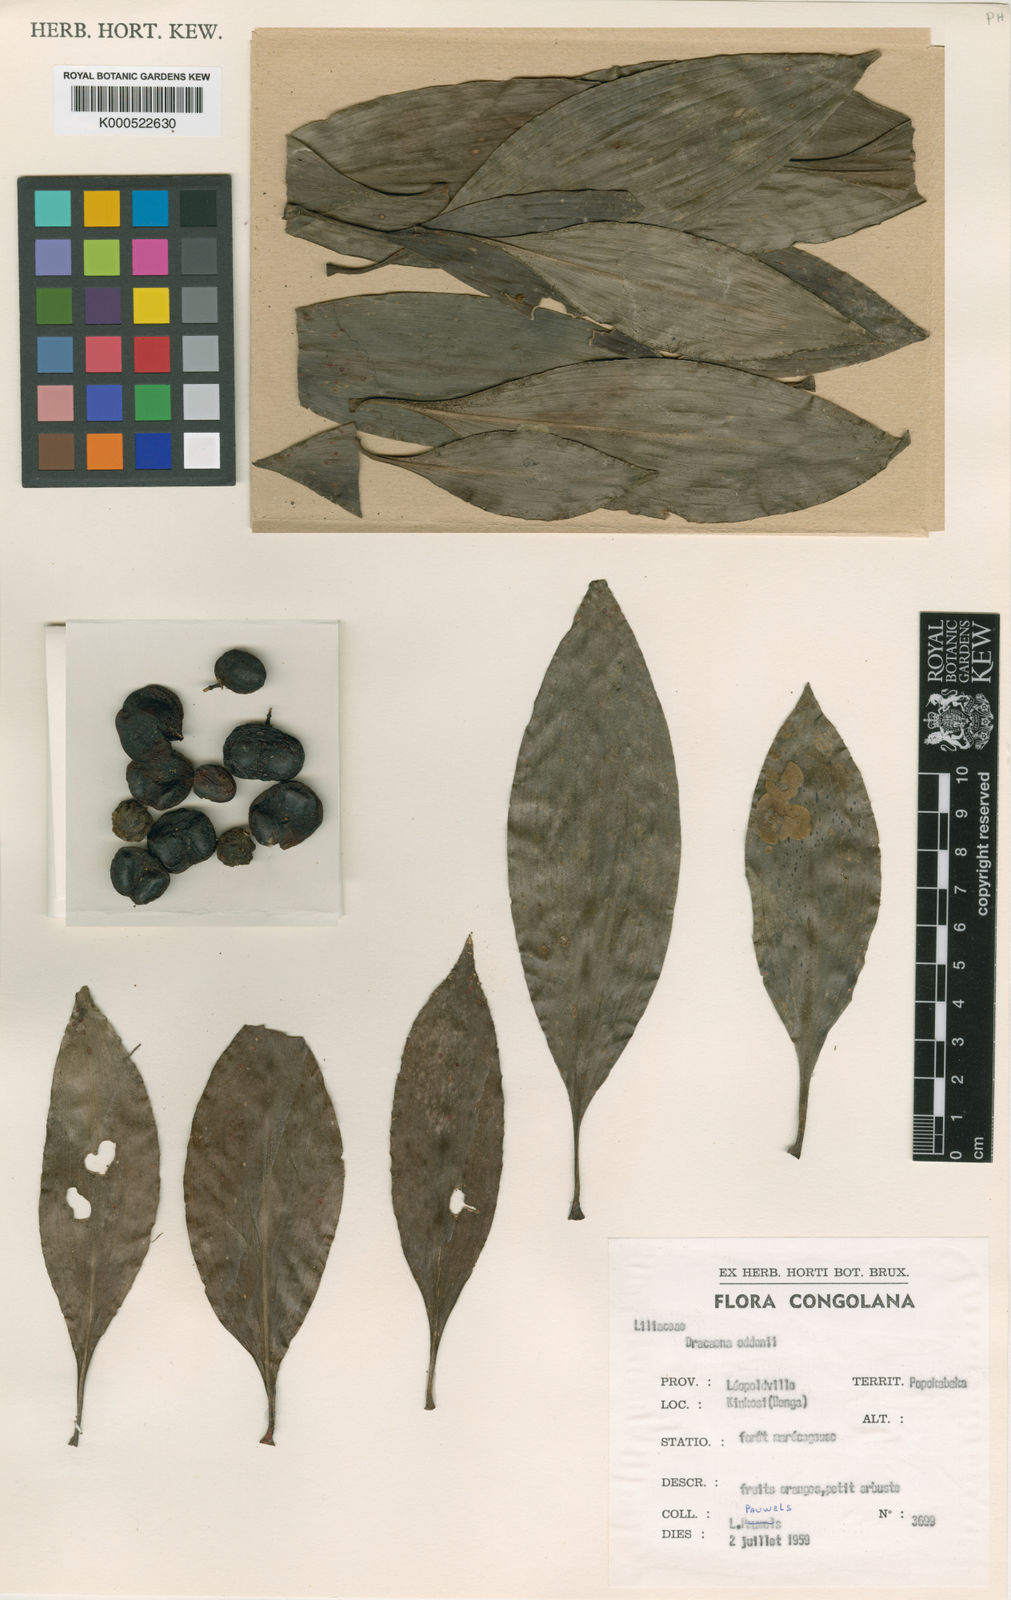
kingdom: Plantae
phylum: Tracheophyta
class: Liliopsida
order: Asparagales
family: Asparagaceae
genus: Dracaena
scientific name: Dracaena camerooniana
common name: Dragon tree
